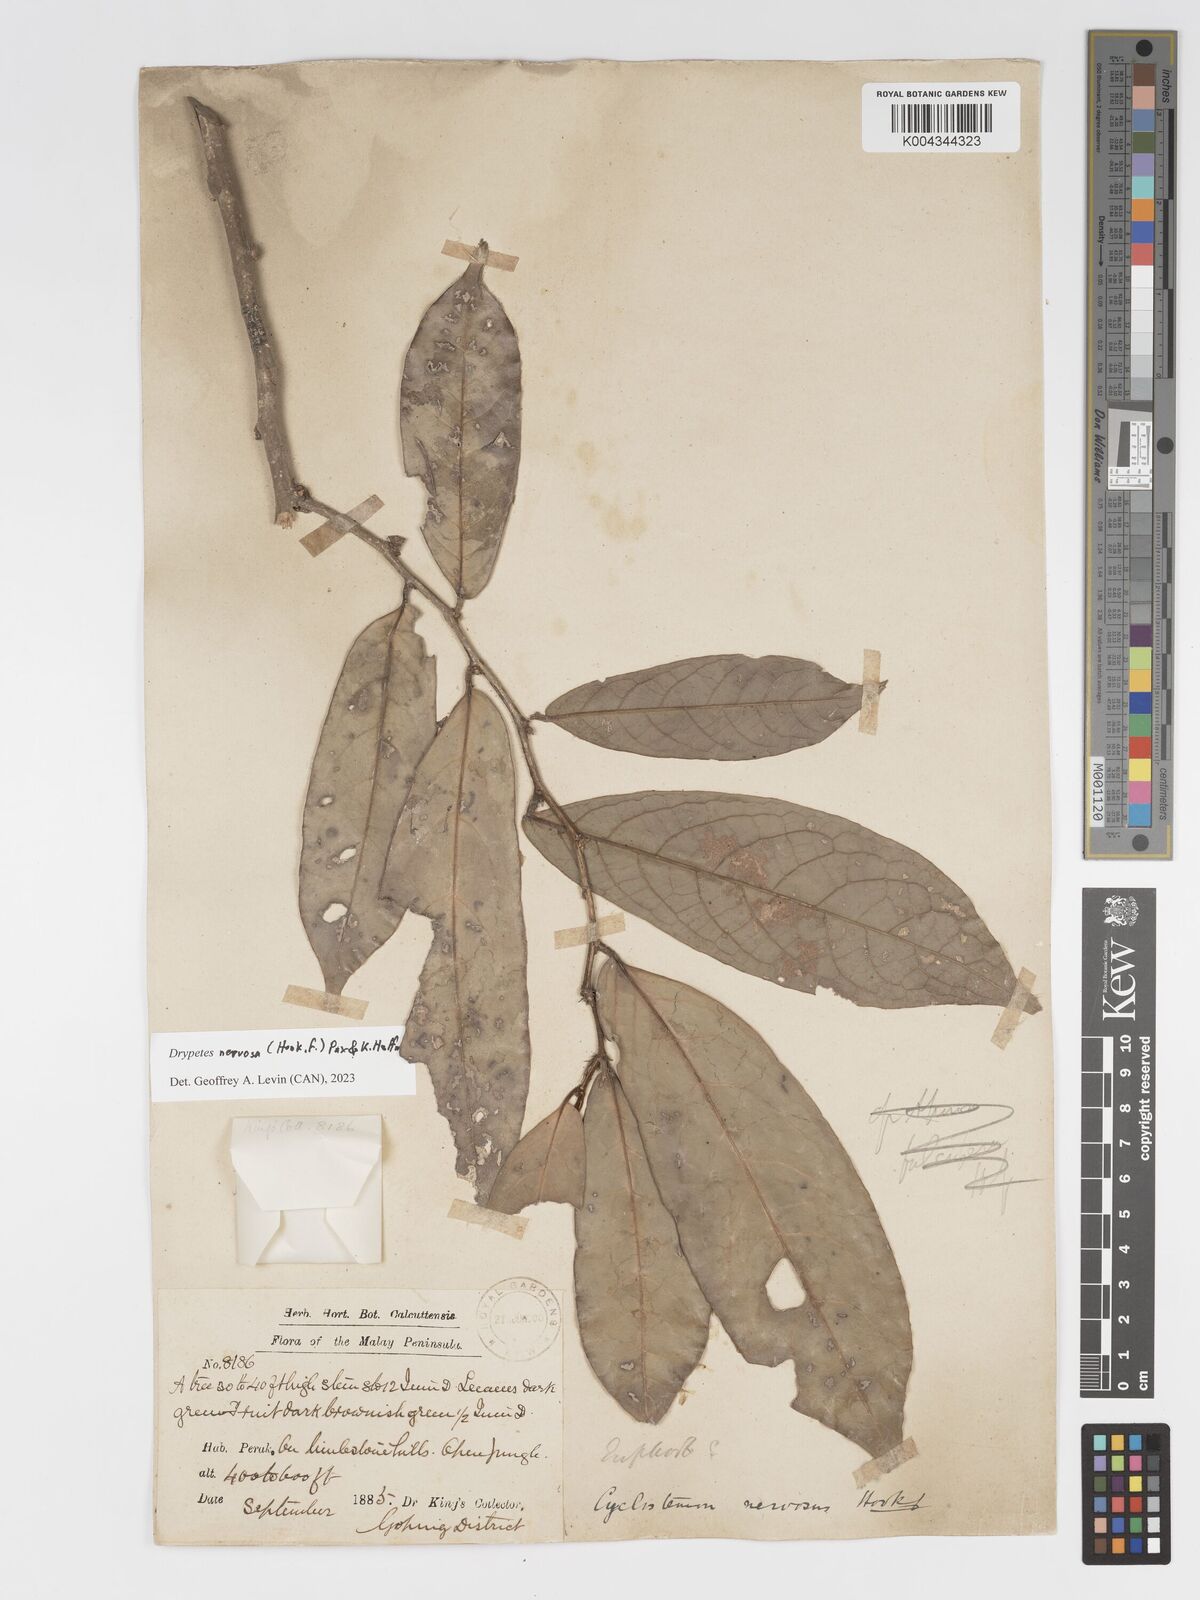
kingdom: Plantae
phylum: Tracheophyta
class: Magnoliopsida
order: Malpighiales
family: Putranjivaceae
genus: Drypetes
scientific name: Drypetes nervosa
